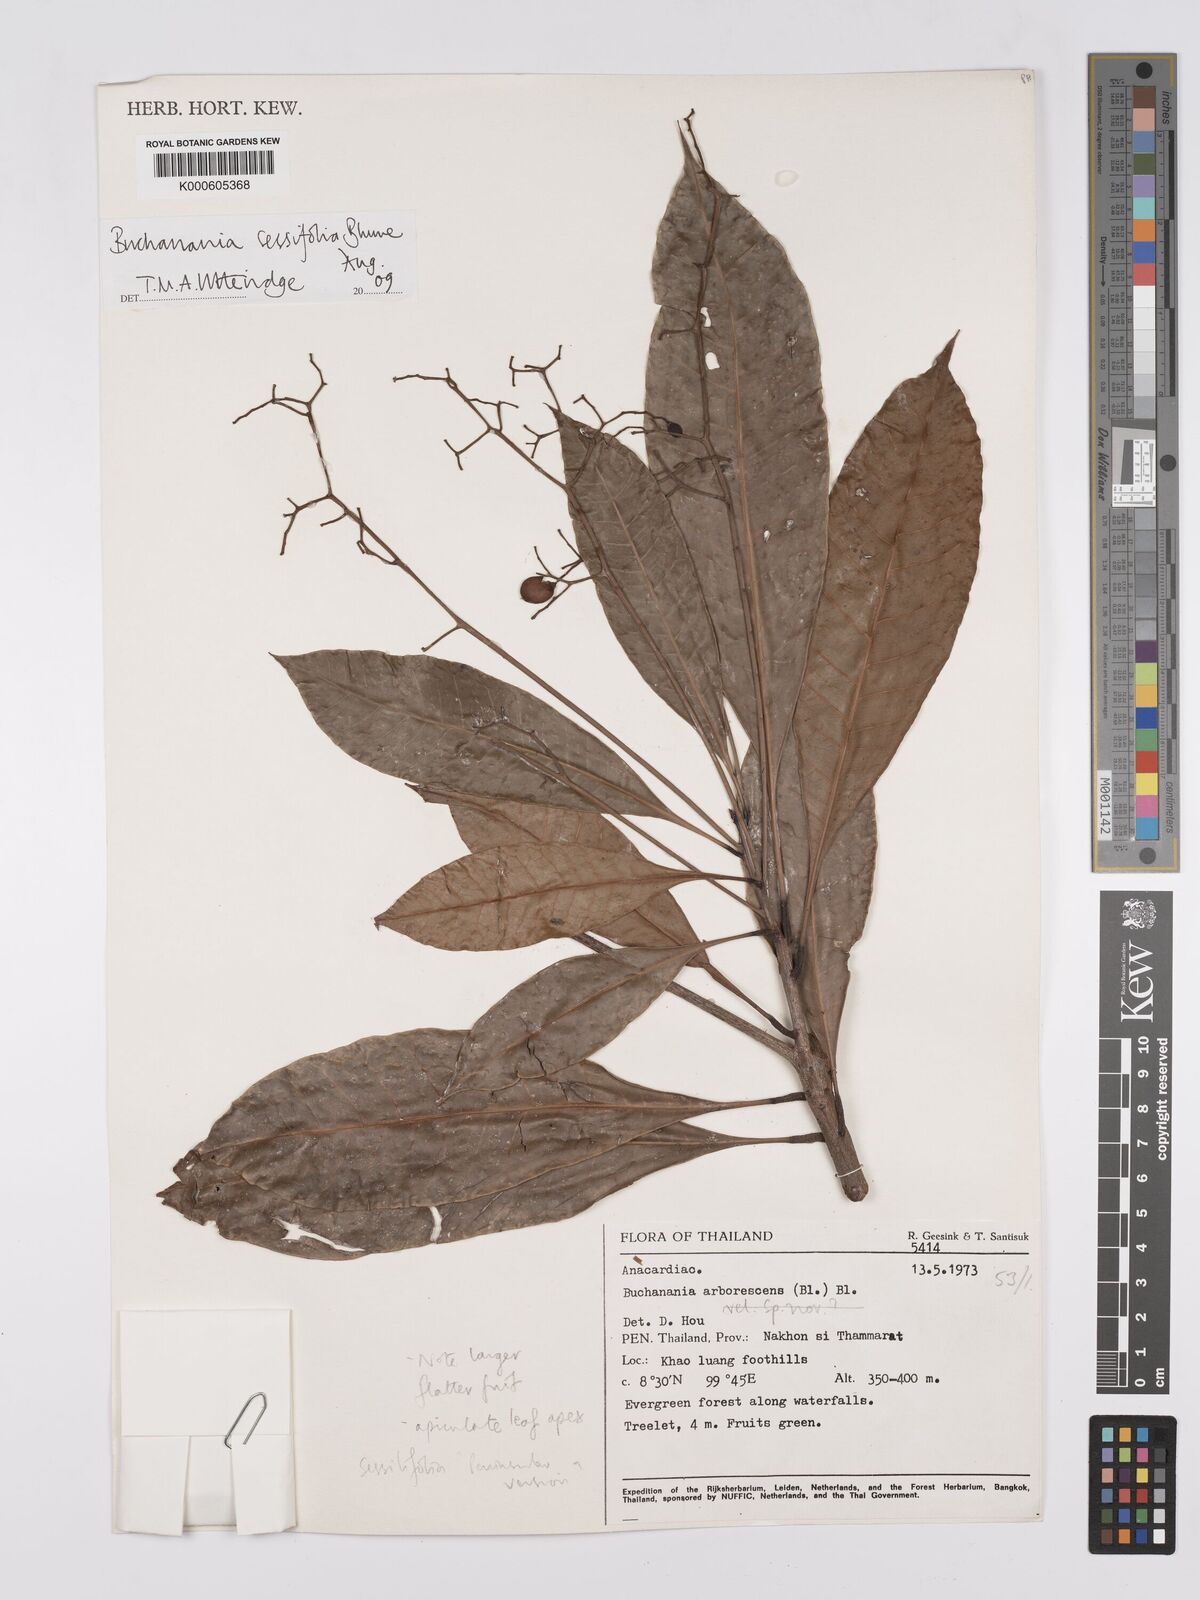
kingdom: Plantae
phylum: Tracheophyta
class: Magnoliopsida
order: Sapindales
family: Anacardiaceae
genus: Buchanania
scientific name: Buchanania sessifolia
